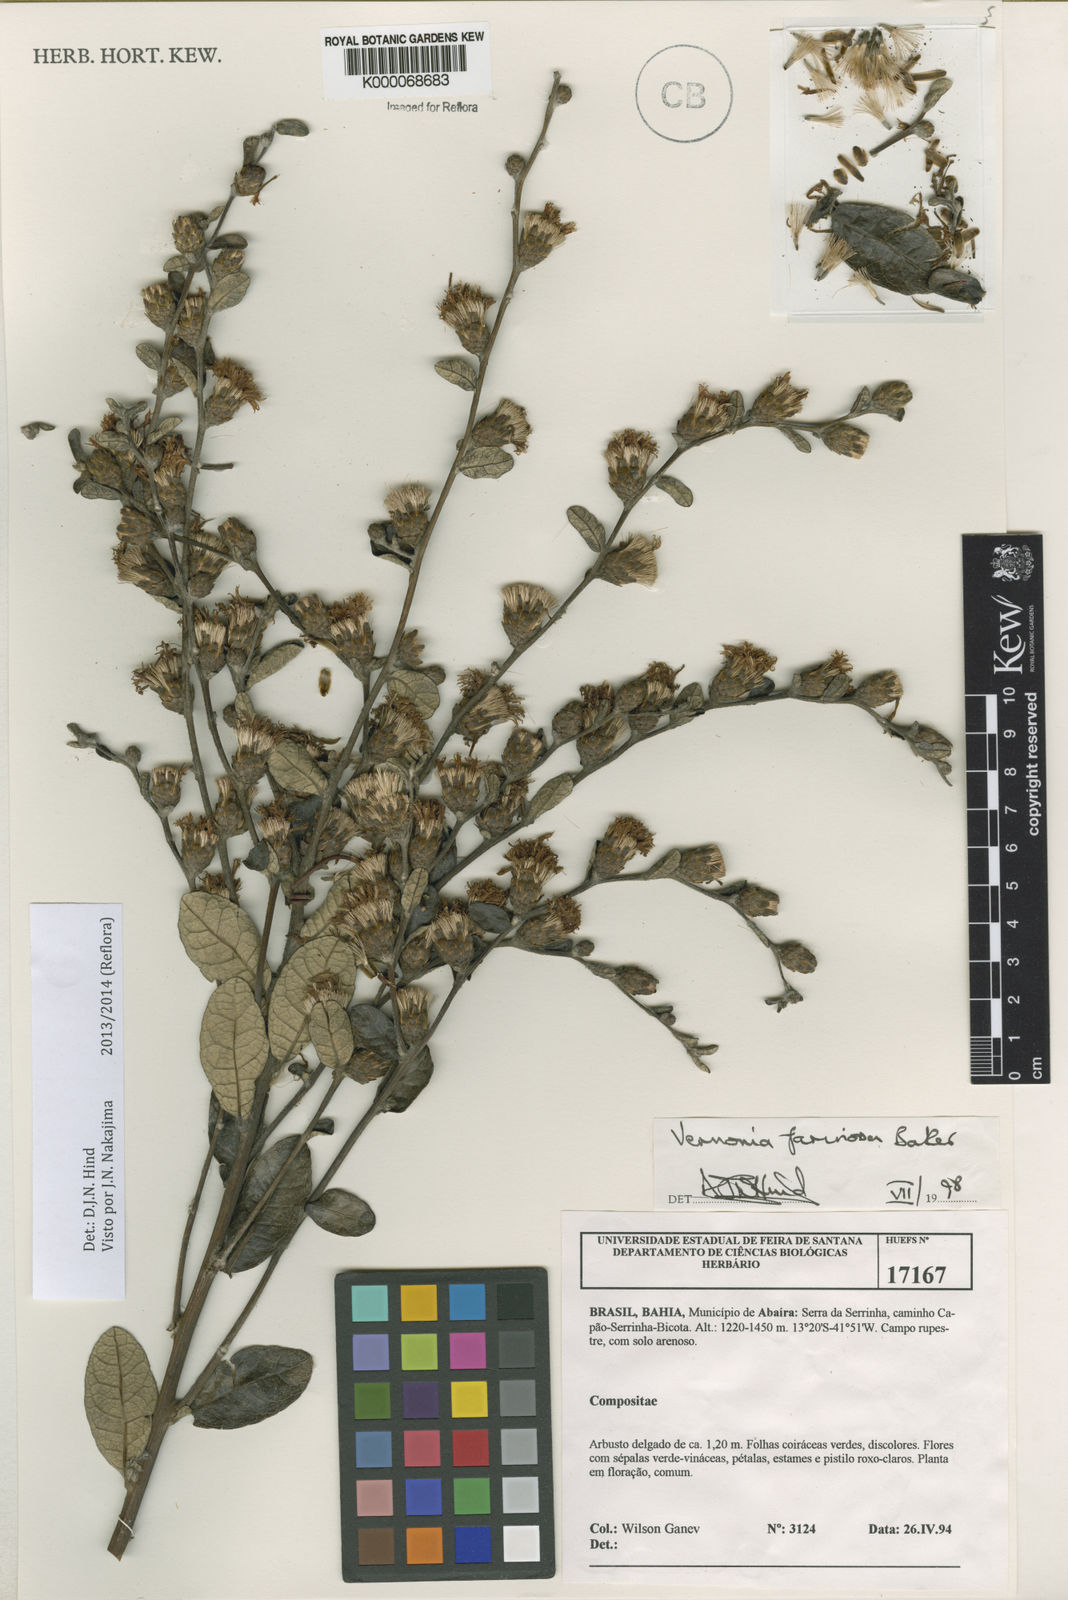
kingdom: Plantae
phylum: Tracheophyta
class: Magnoliopsida
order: Asterales
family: Asteraceae
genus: Lessingianthus
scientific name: Lessingianthus farinosus
